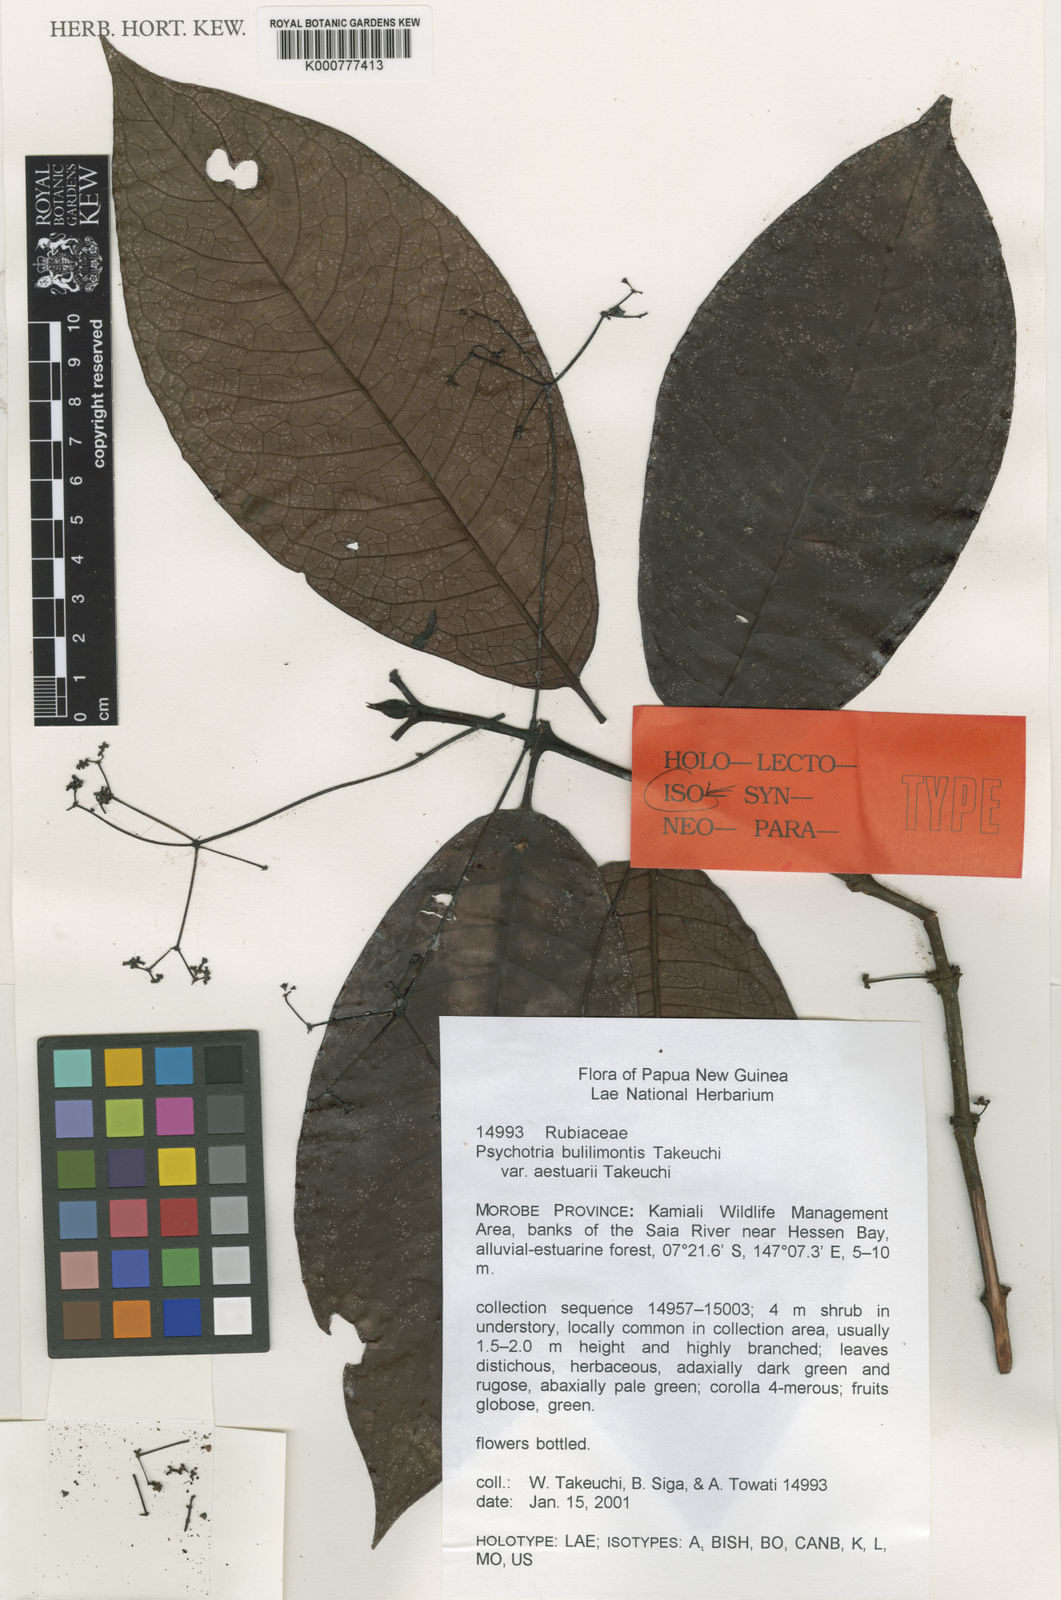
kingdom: Plantae
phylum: Tracheophyta
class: Magnoliopsida
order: Gentianales
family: Rubiaceae
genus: Psychotria
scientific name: Psychotria bulilimontis
